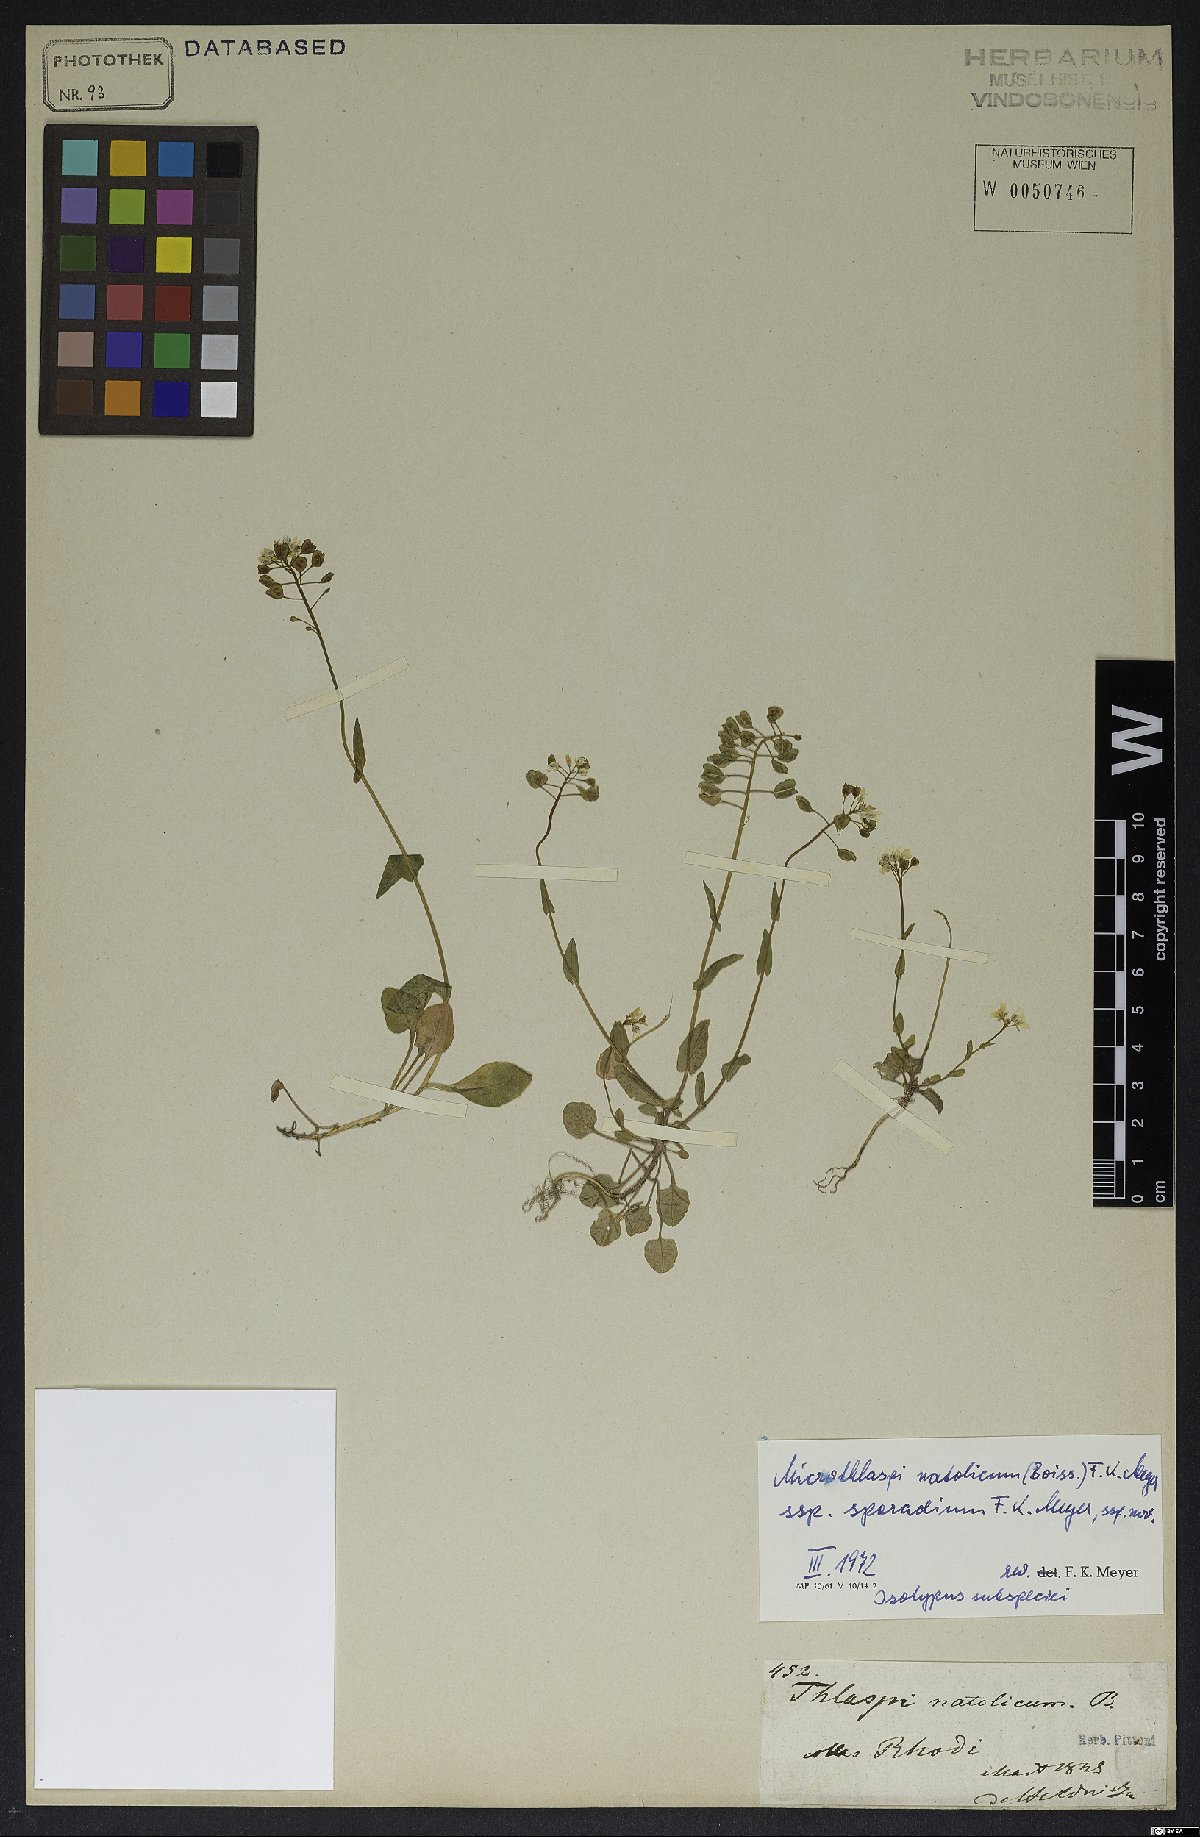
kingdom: Plantae
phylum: Tracheophyta
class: Magnoliopsida
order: Brassicales
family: Brassicaceae
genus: Noccaea
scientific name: Noccaea natolica
